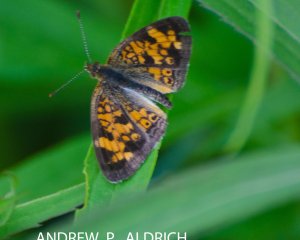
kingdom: Animalia
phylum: Arthropoda
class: Insecta
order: Lepidoptera
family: Nymphalidae
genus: Phyciodes
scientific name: Phyciodes tharos
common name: Pearl Crescent
